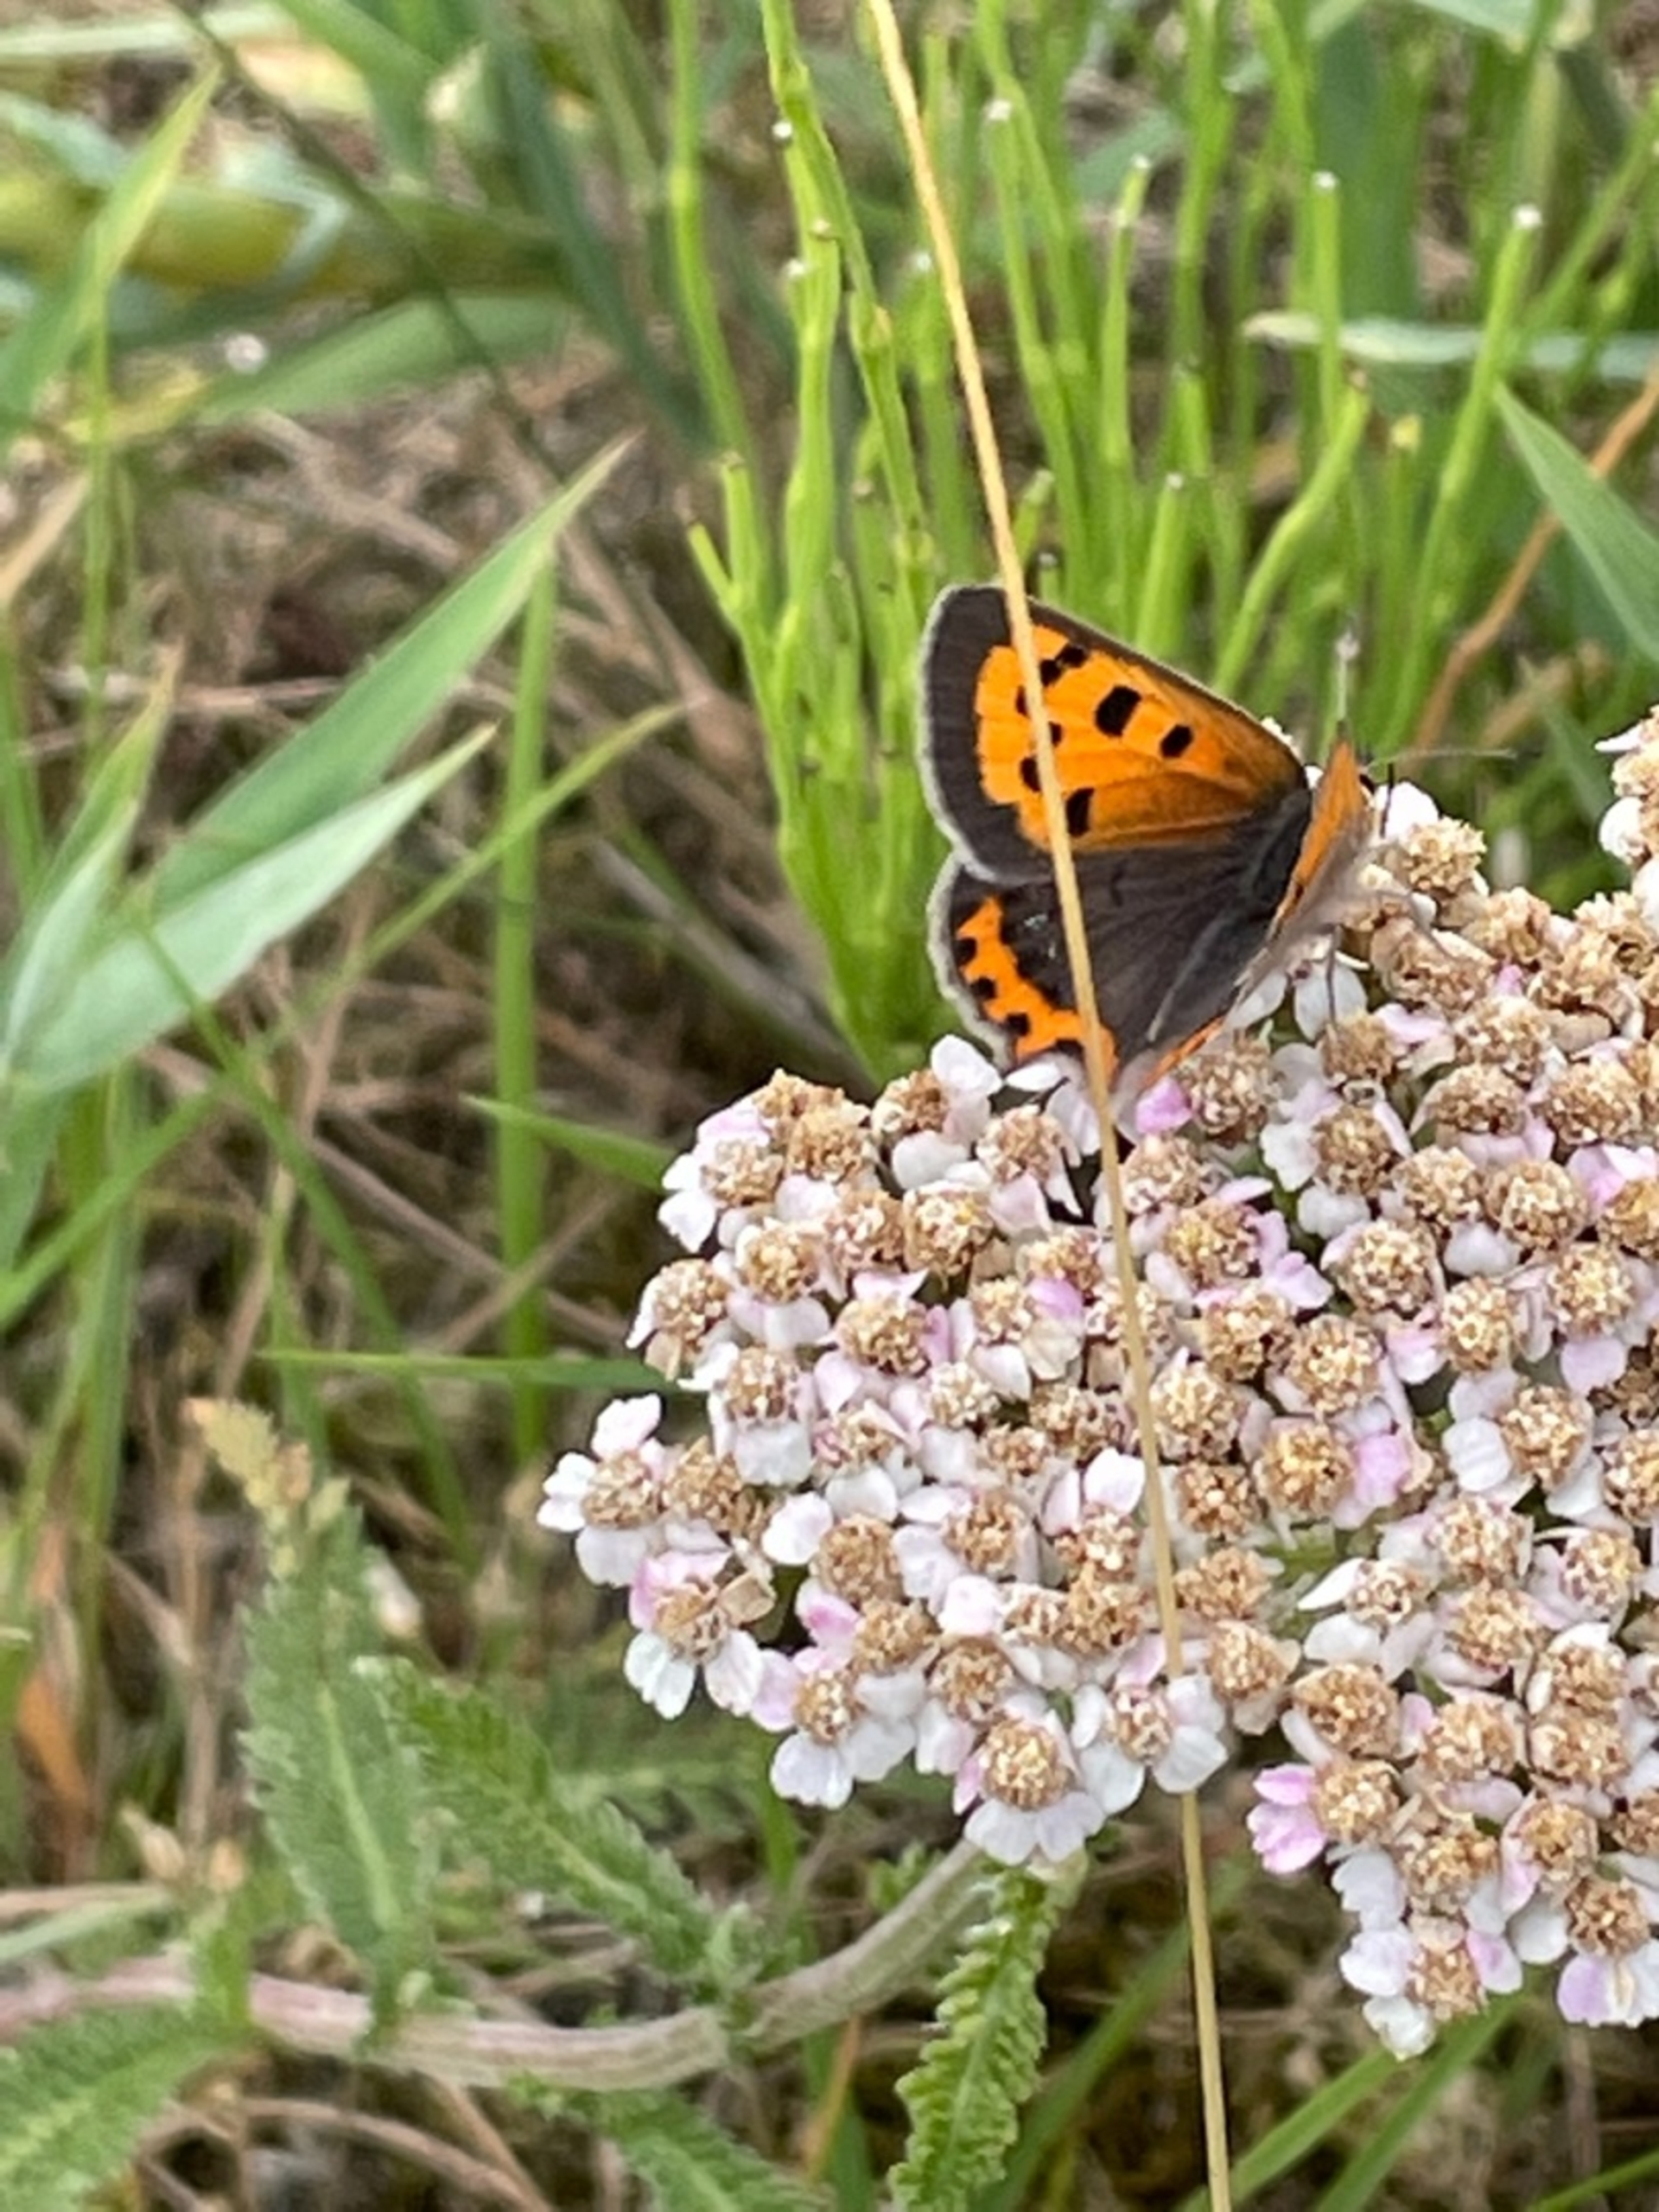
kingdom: Animalia
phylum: Arthropoda
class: Insecta
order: Lepidoptera
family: Lycaenidae
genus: Lycaena
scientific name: Lycaena phlaeas
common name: Lille ildfugl
